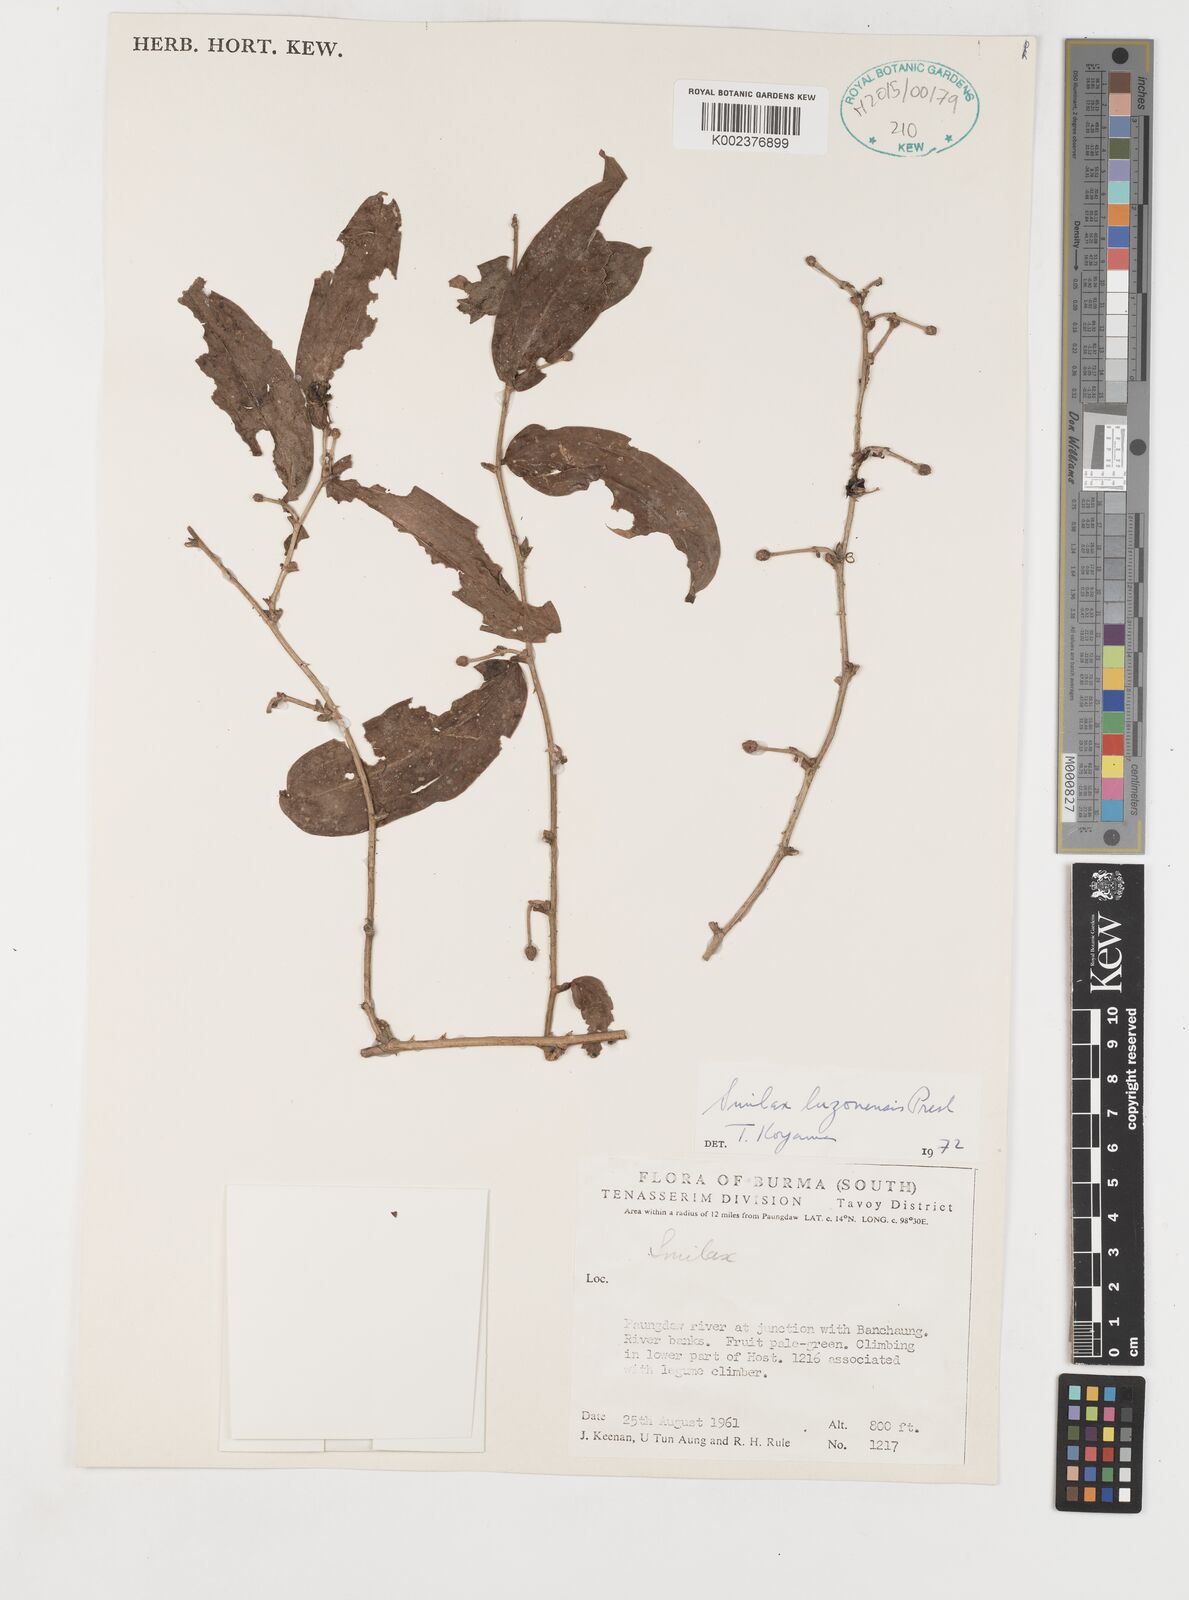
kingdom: Plantae
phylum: Tracheophyta
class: Liliopsida
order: Liliales
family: Smilacaceae
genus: Smilax
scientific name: Smilax luzonensis
